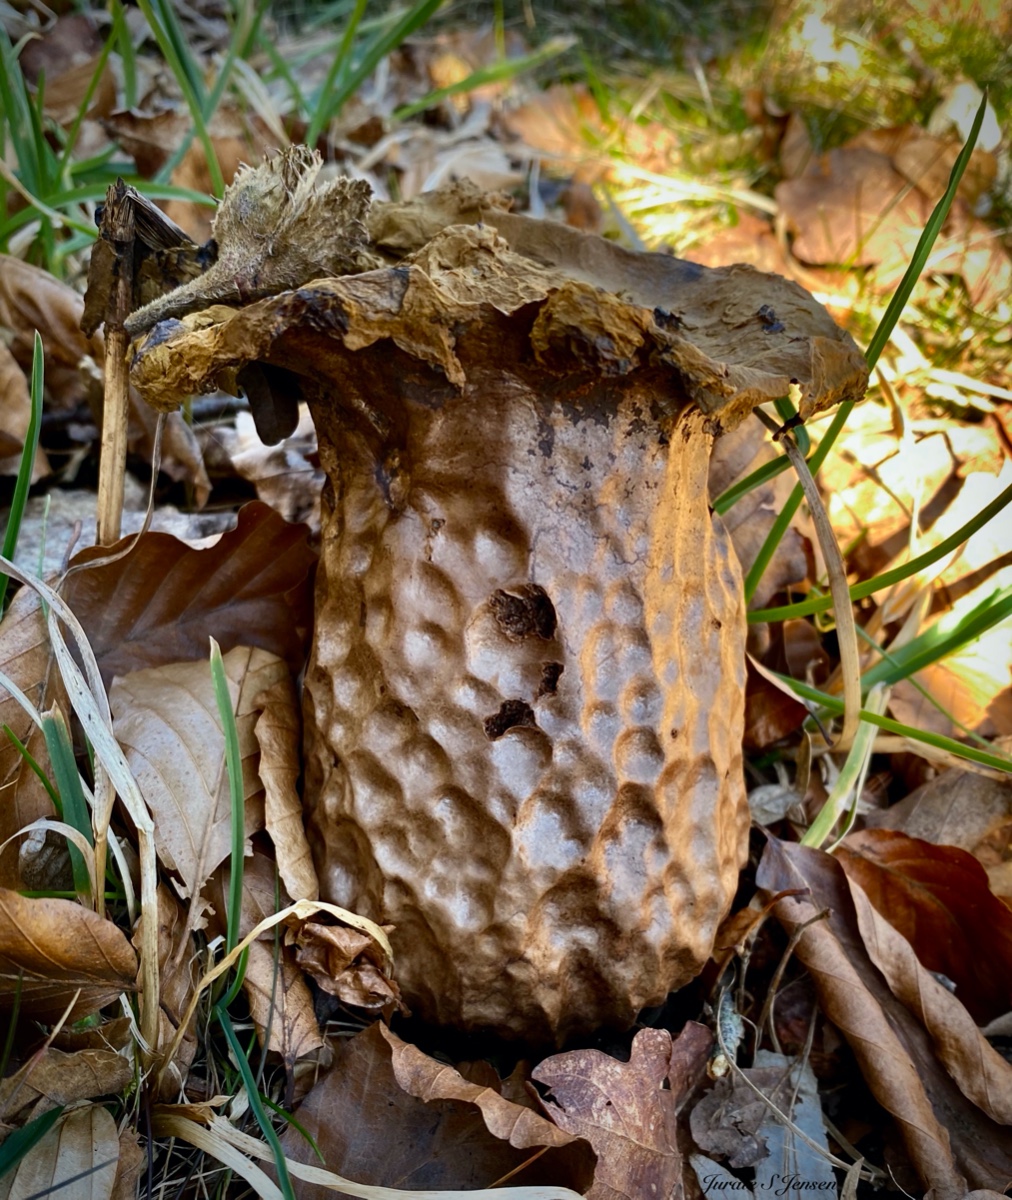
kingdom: Fungi
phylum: Basidiomycota
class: Agaricomycetes
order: Agaricales
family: Lycoperdaceae
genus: Lycoperdon
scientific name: Lycoperdon excipuliforme
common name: højstokket støvbold
